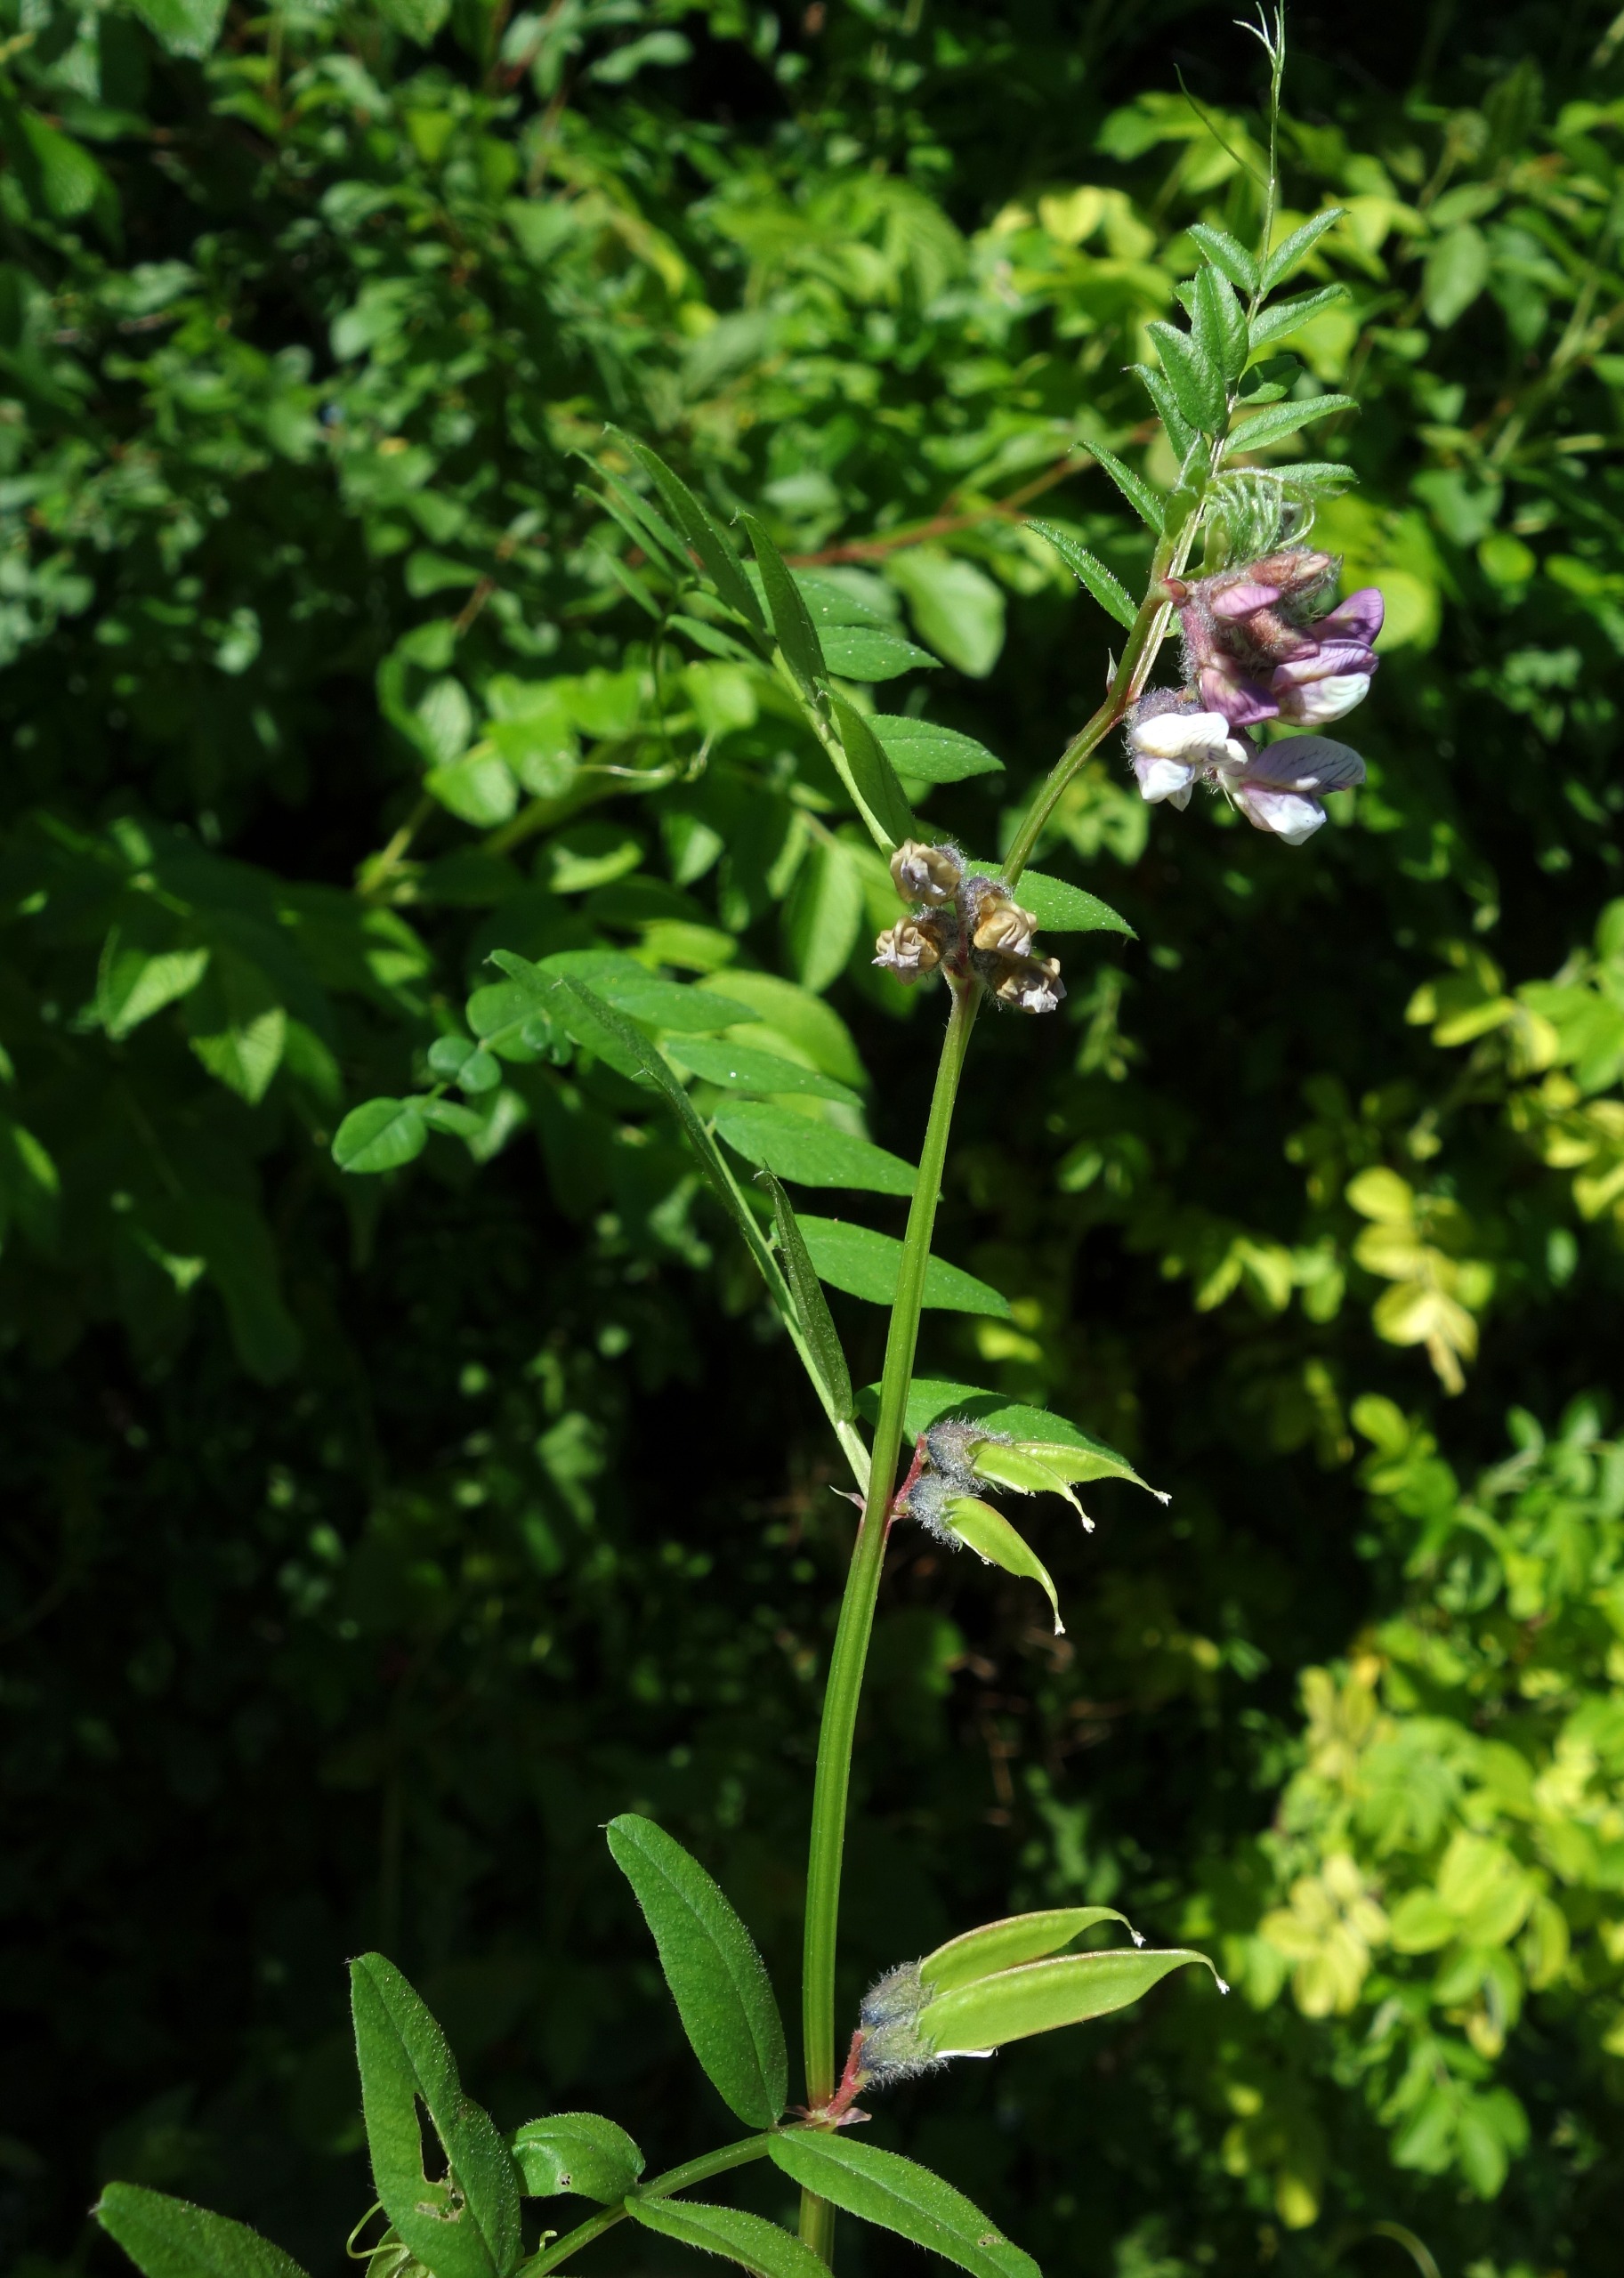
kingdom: Plantae
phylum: Tracheophyta
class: Magnoliopsida
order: Fabales
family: Fabaceae
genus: Vicia
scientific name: Vicia sepium
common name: Gærde-vikke
